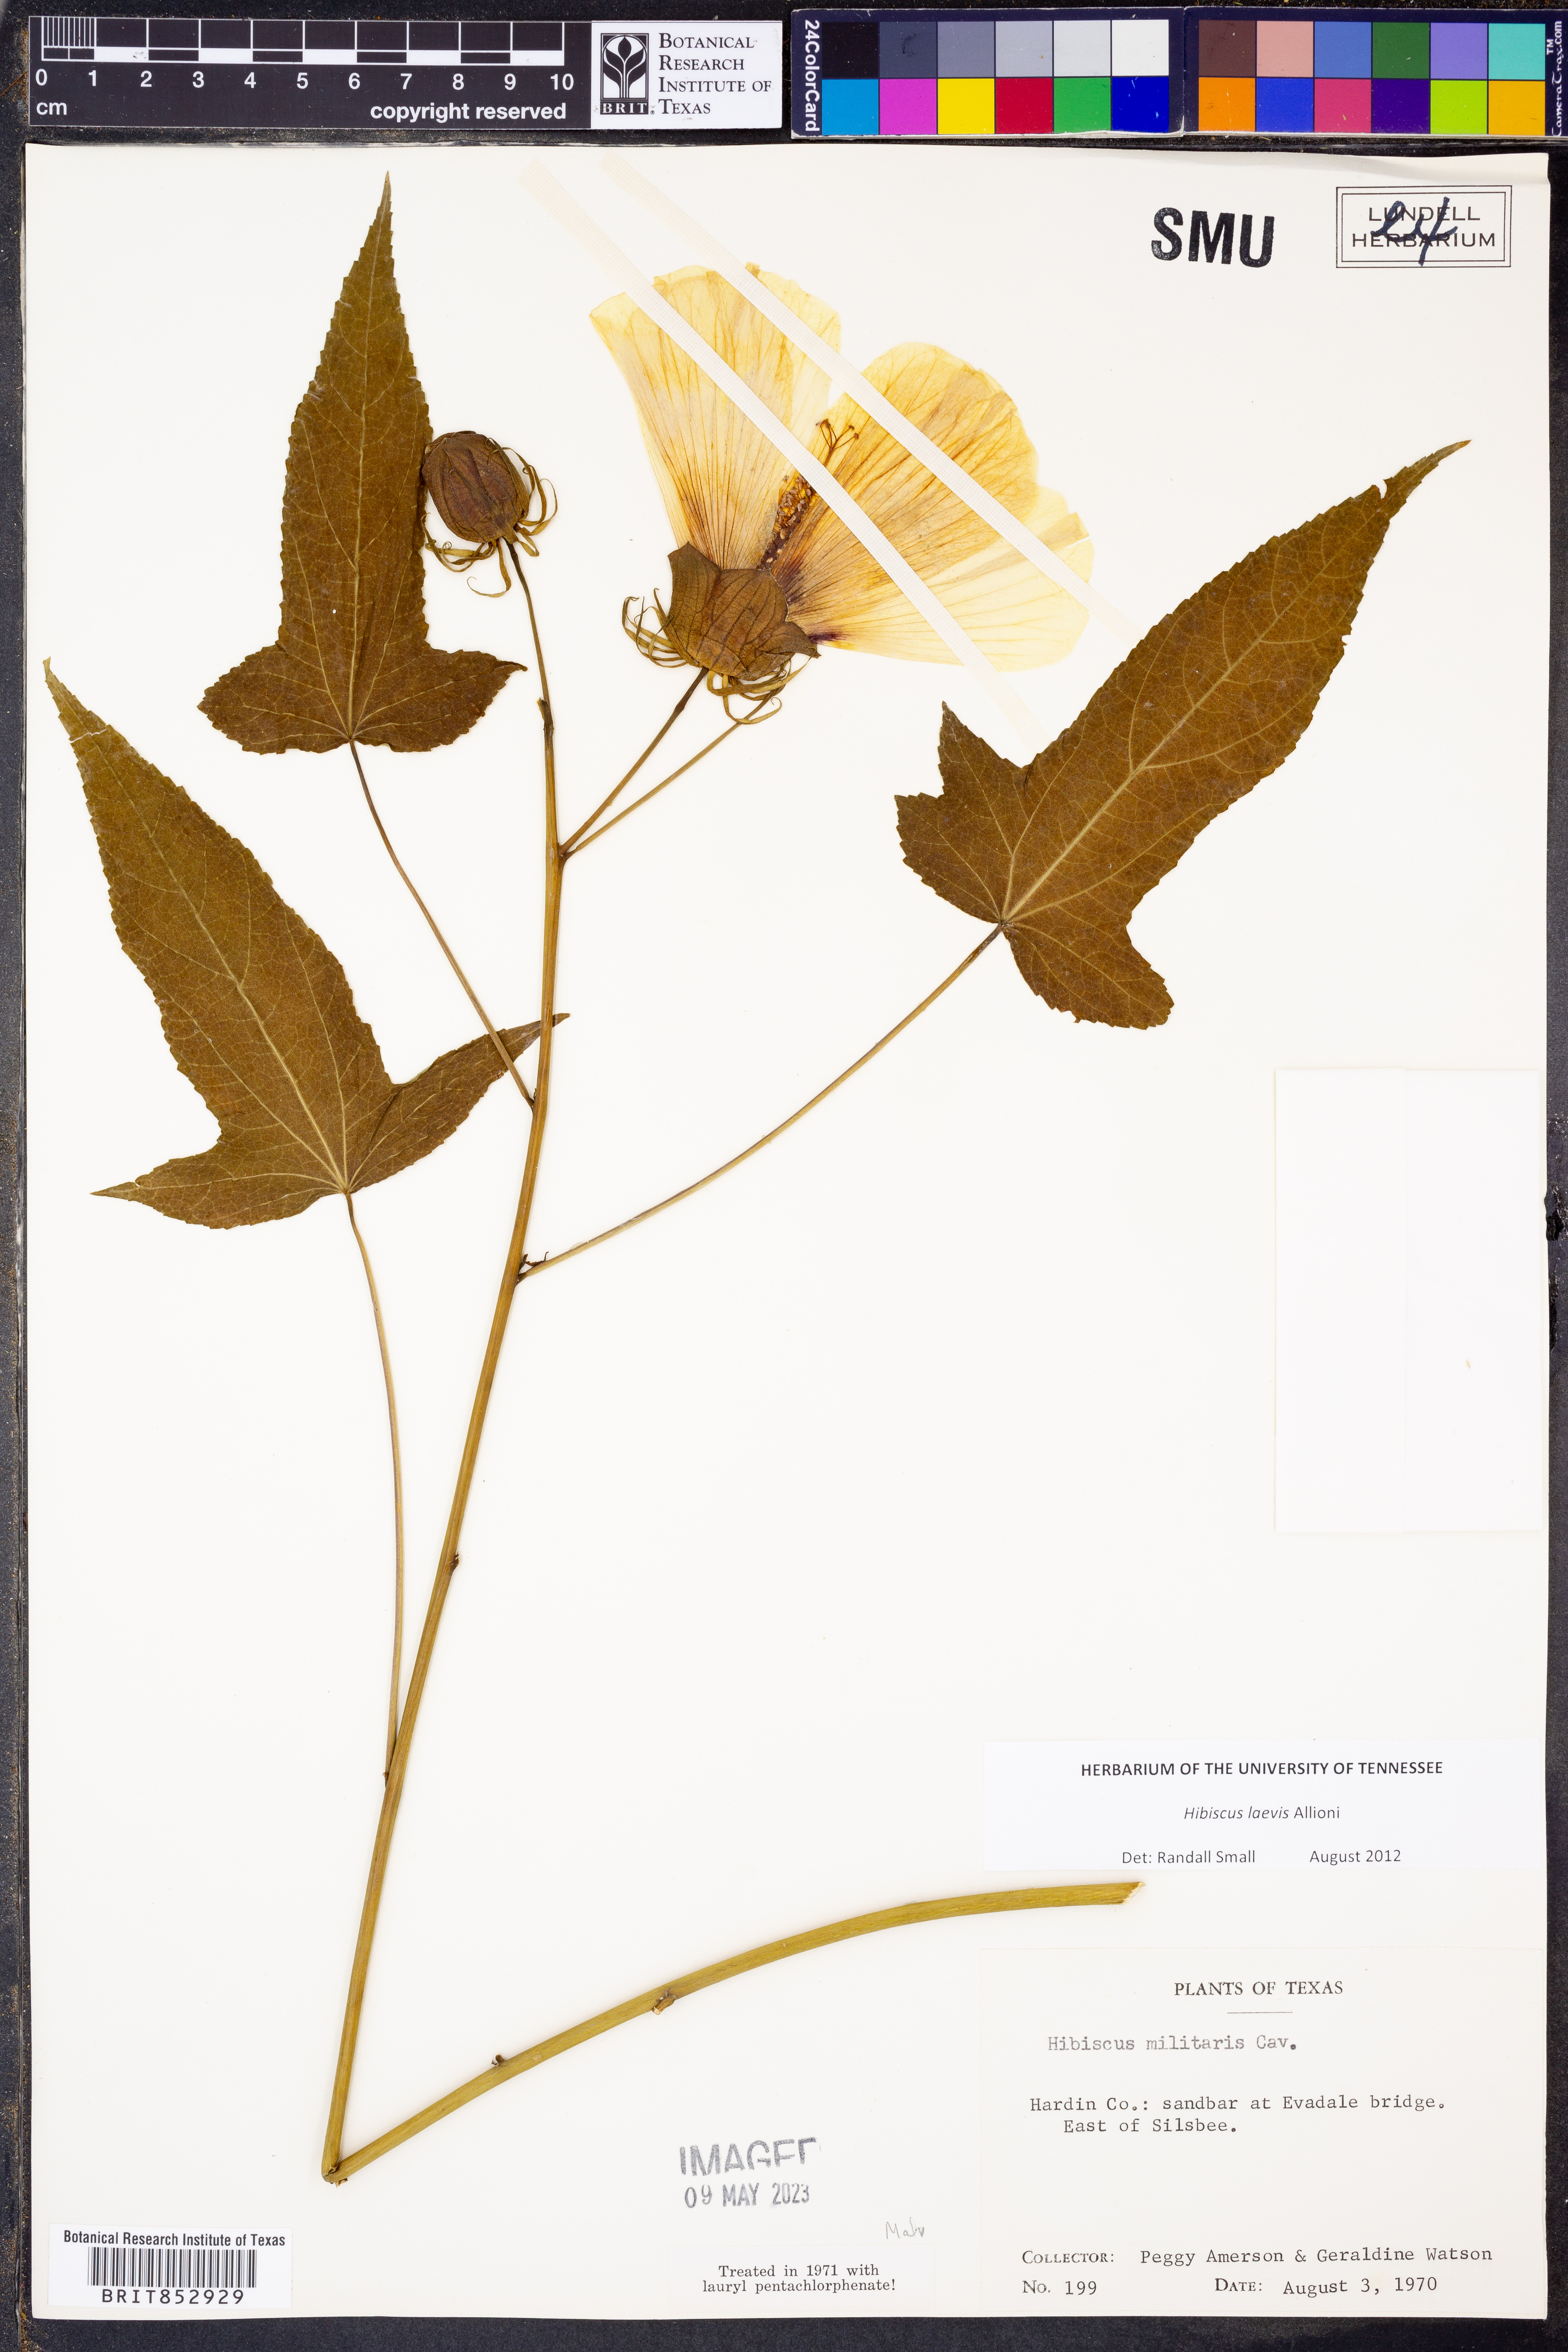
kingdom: Plantae
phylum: Tracheophyta
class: Magnoliopsida
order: Malvales
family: Malvaceae
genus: Hibiscus
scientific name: Hibiscus laevis
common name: Scarlet rose-mallow
